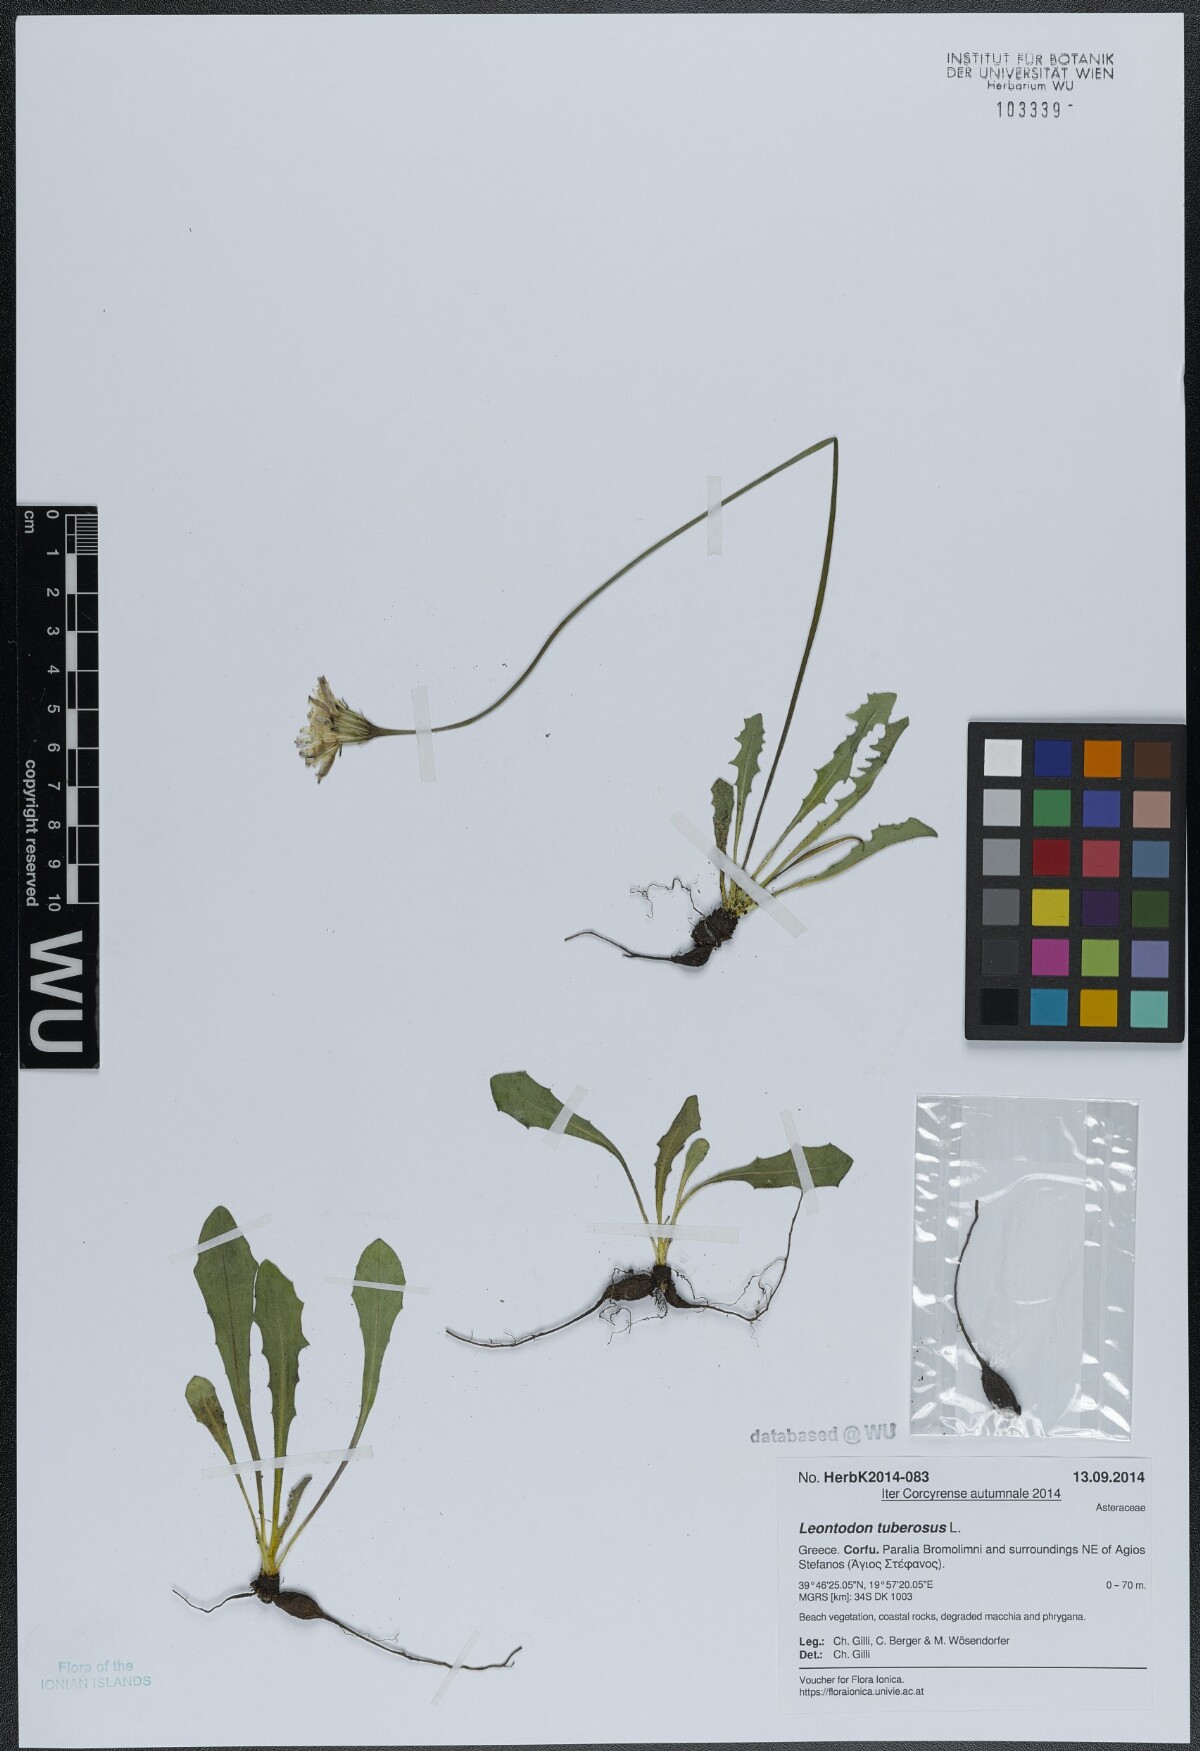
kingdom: Plantae
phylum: Tracheophyta
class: Magnoliopsida
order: Asterales
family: Asteraceae
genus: Thrincia
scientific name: Thrincia tuberosa
